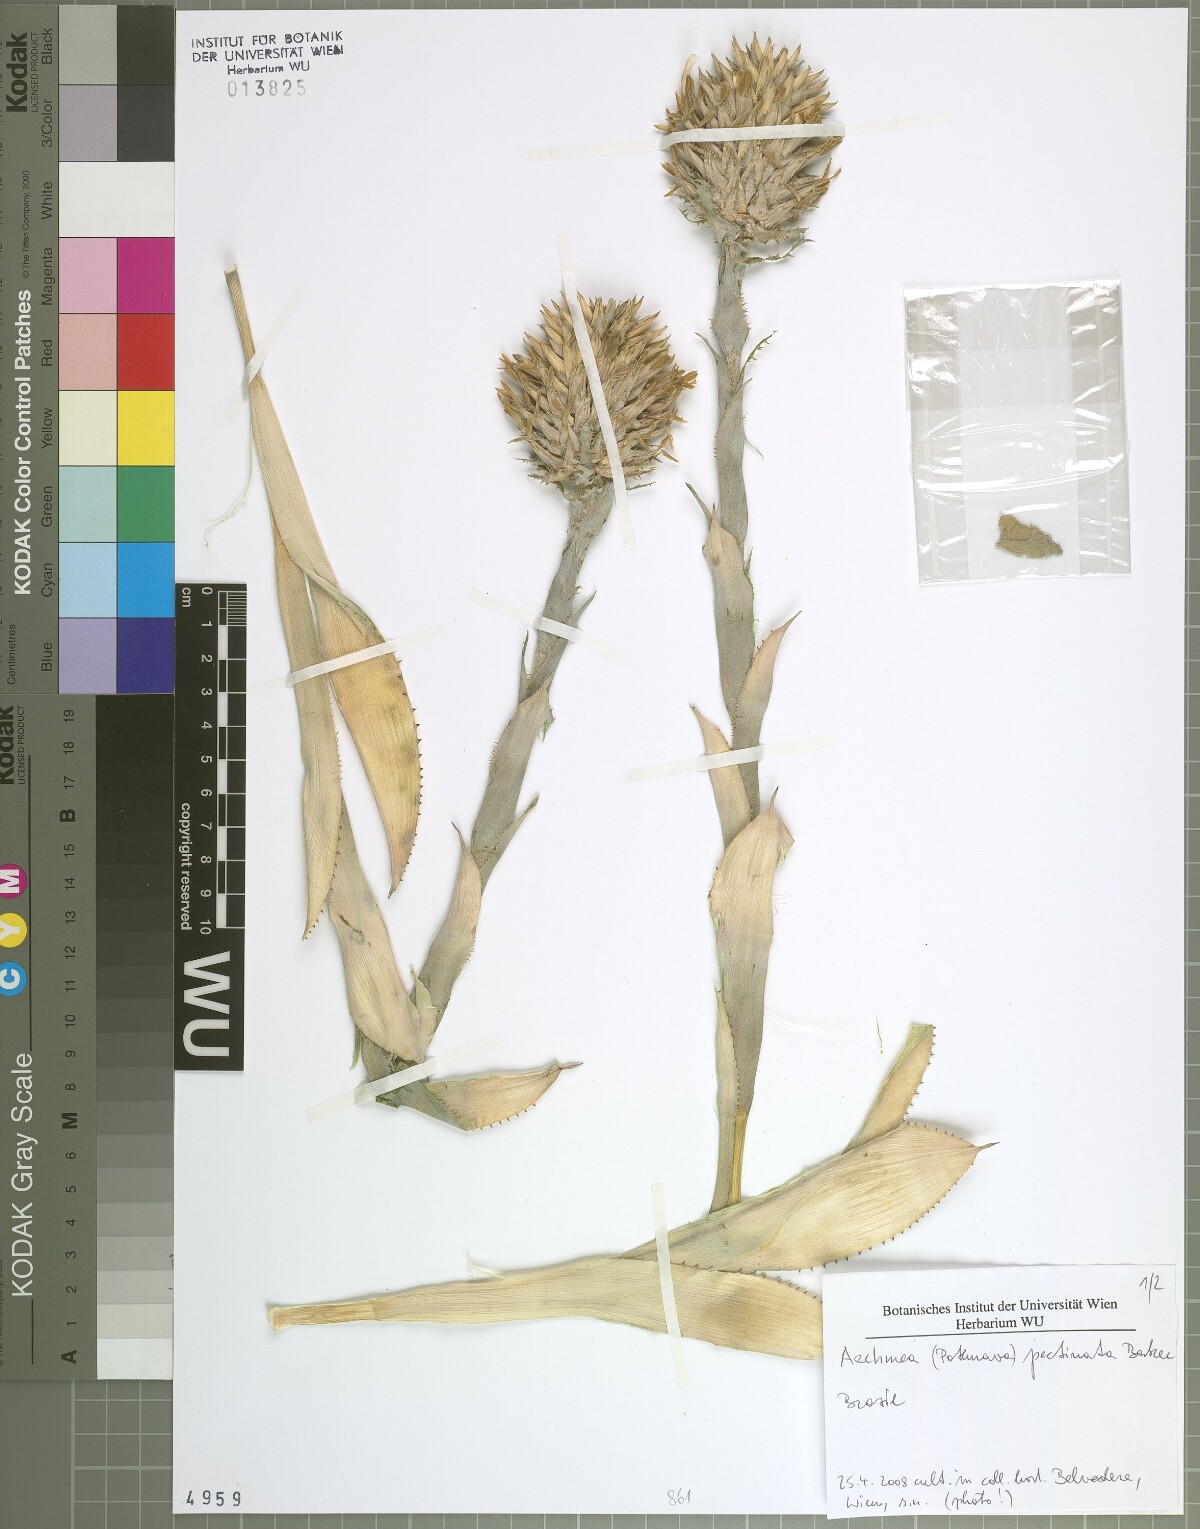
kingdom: Plantae
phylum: Tracheophyta
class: Liliopsida
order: Poales
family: Bromeliaceae
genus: Aechmea
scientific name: Aechmea pectinata
